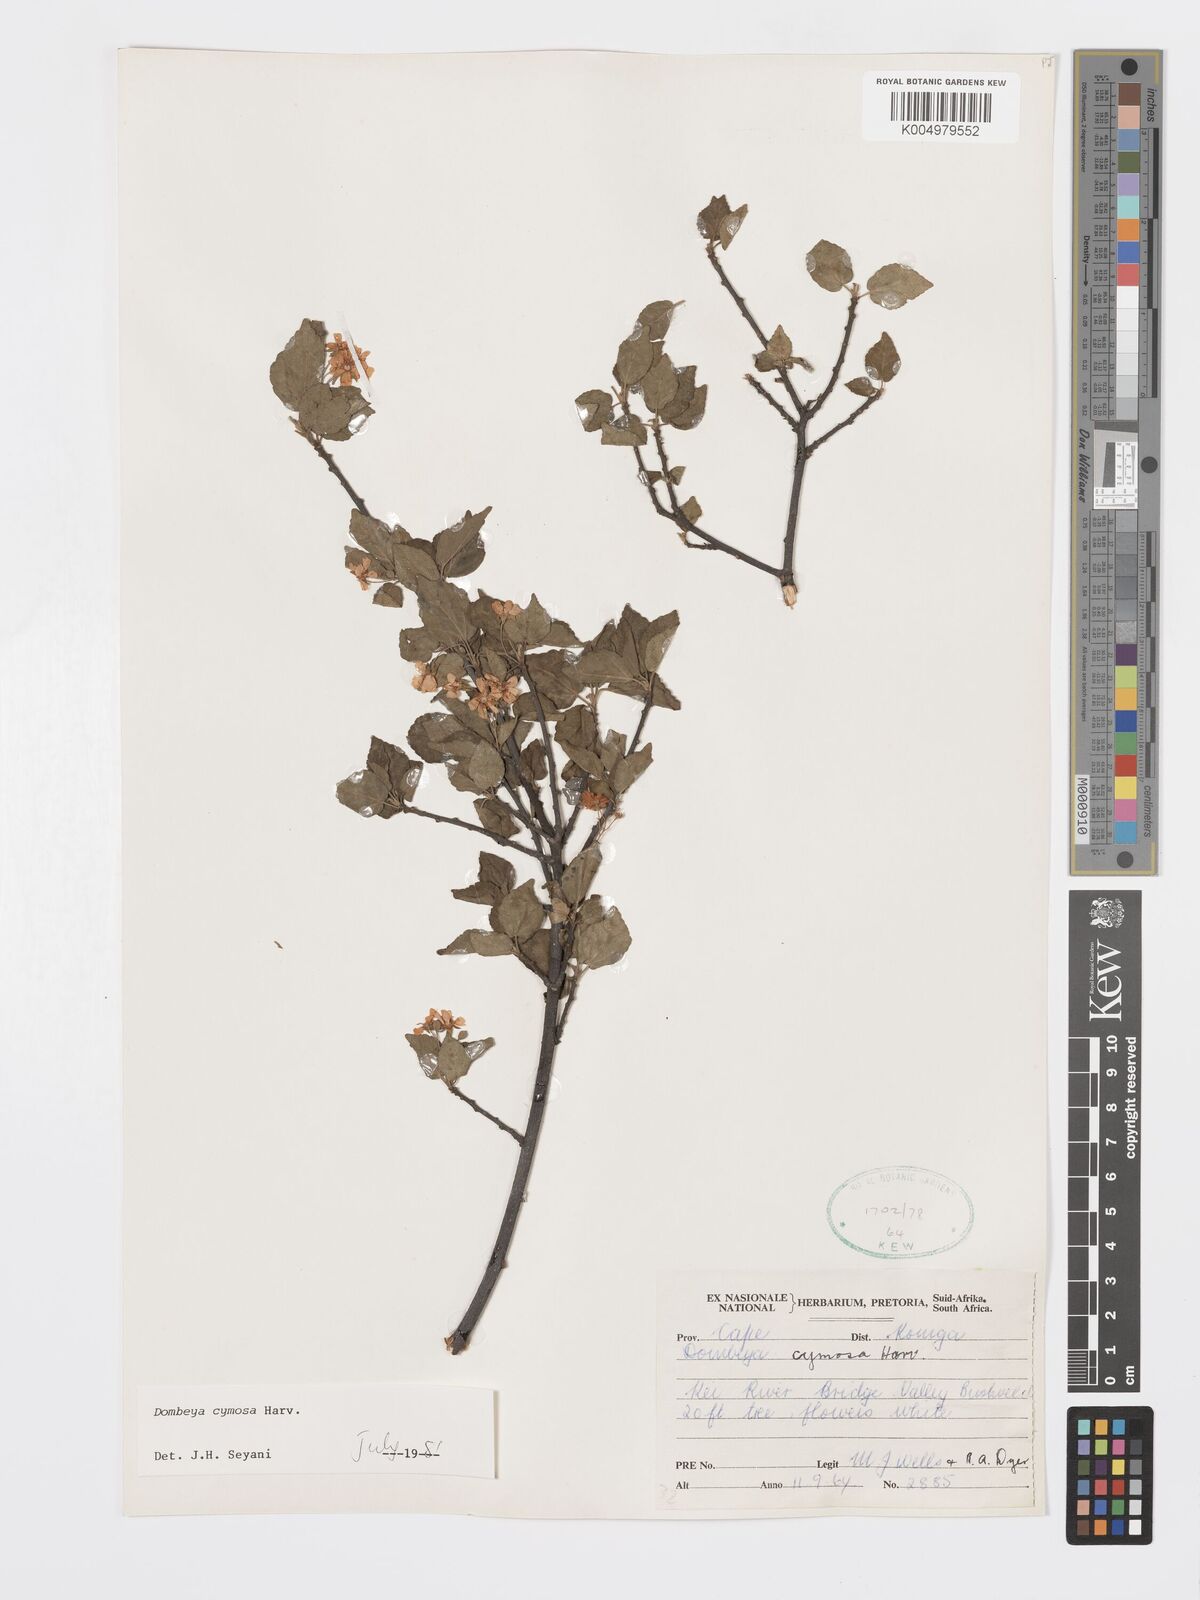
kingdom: Plantae
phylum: Tracheophyta
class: Magnoliopsida
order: Malvales
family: Malvaceae
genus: Dombeya
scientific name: Dombeya cymosa
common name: Hairless dombeya
